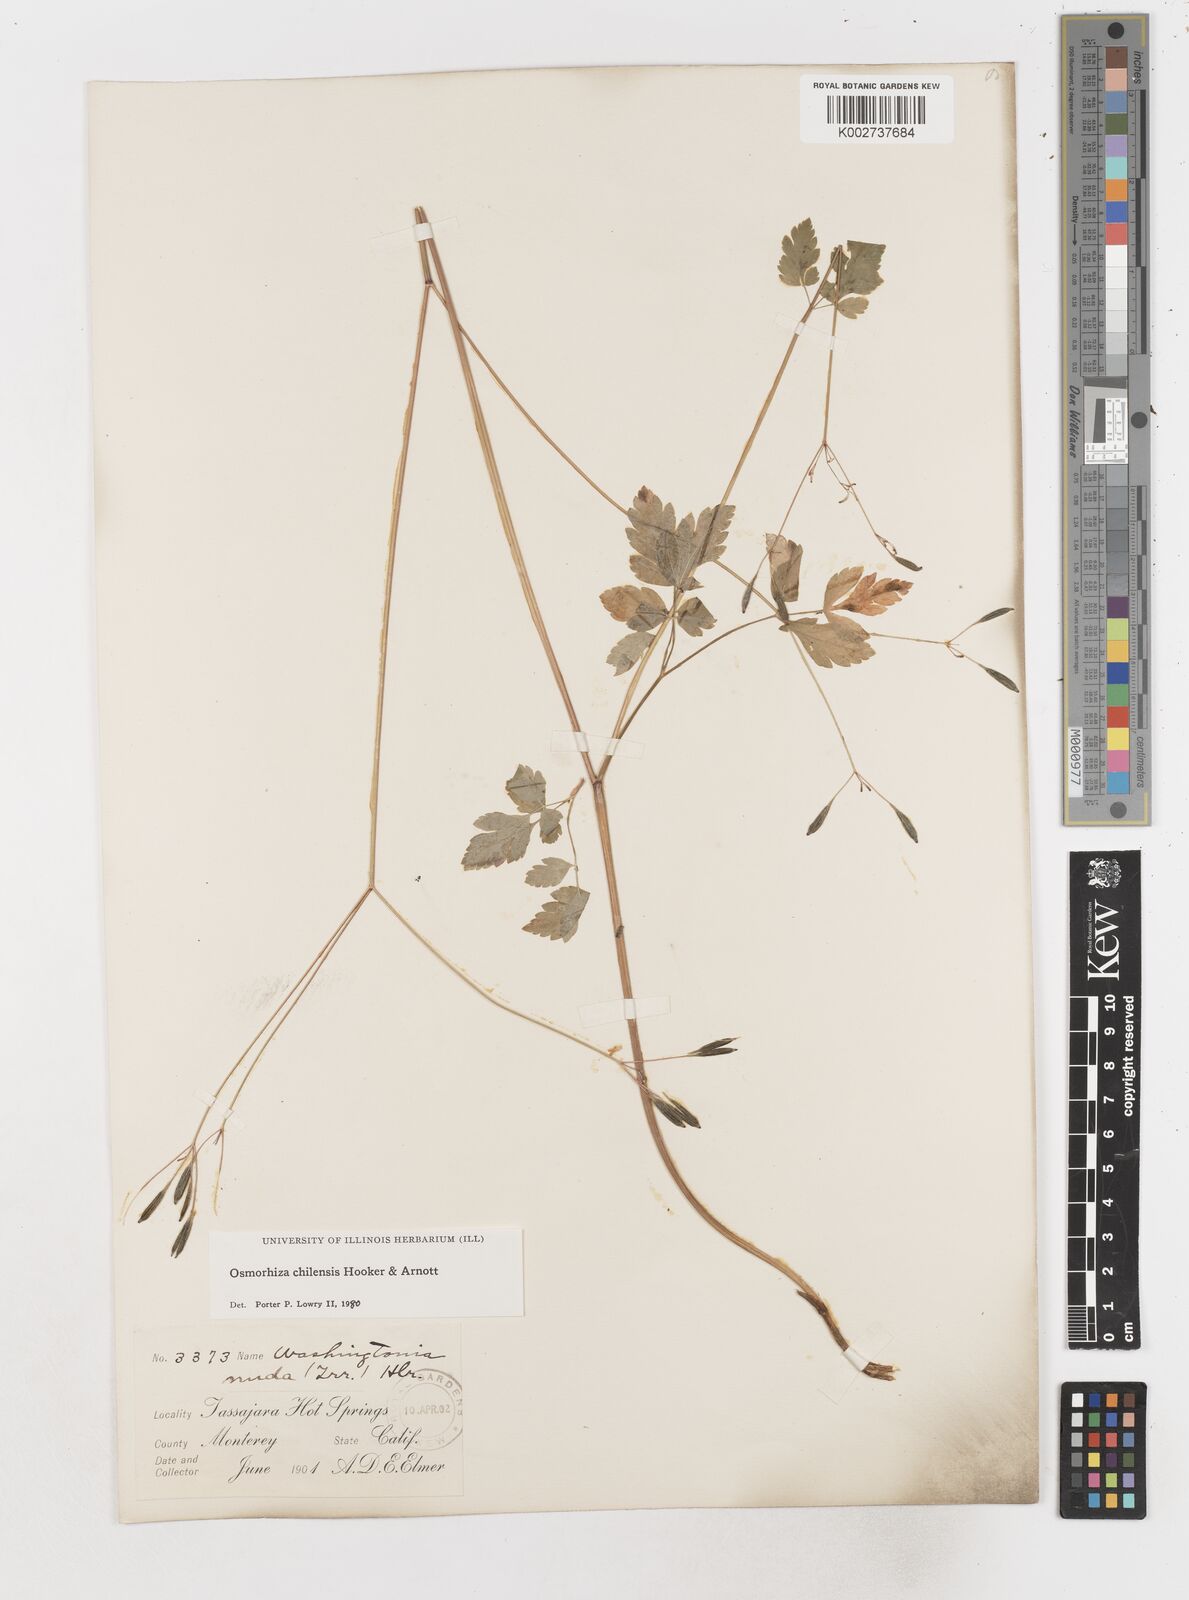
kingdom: Plantae
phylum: Tracheophyta
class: Magnoliopsida
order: Apiales
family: Apiaceae
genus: Osmorhiza
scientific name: Osmorhiza berteroi
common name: Mountain sweet cicely
